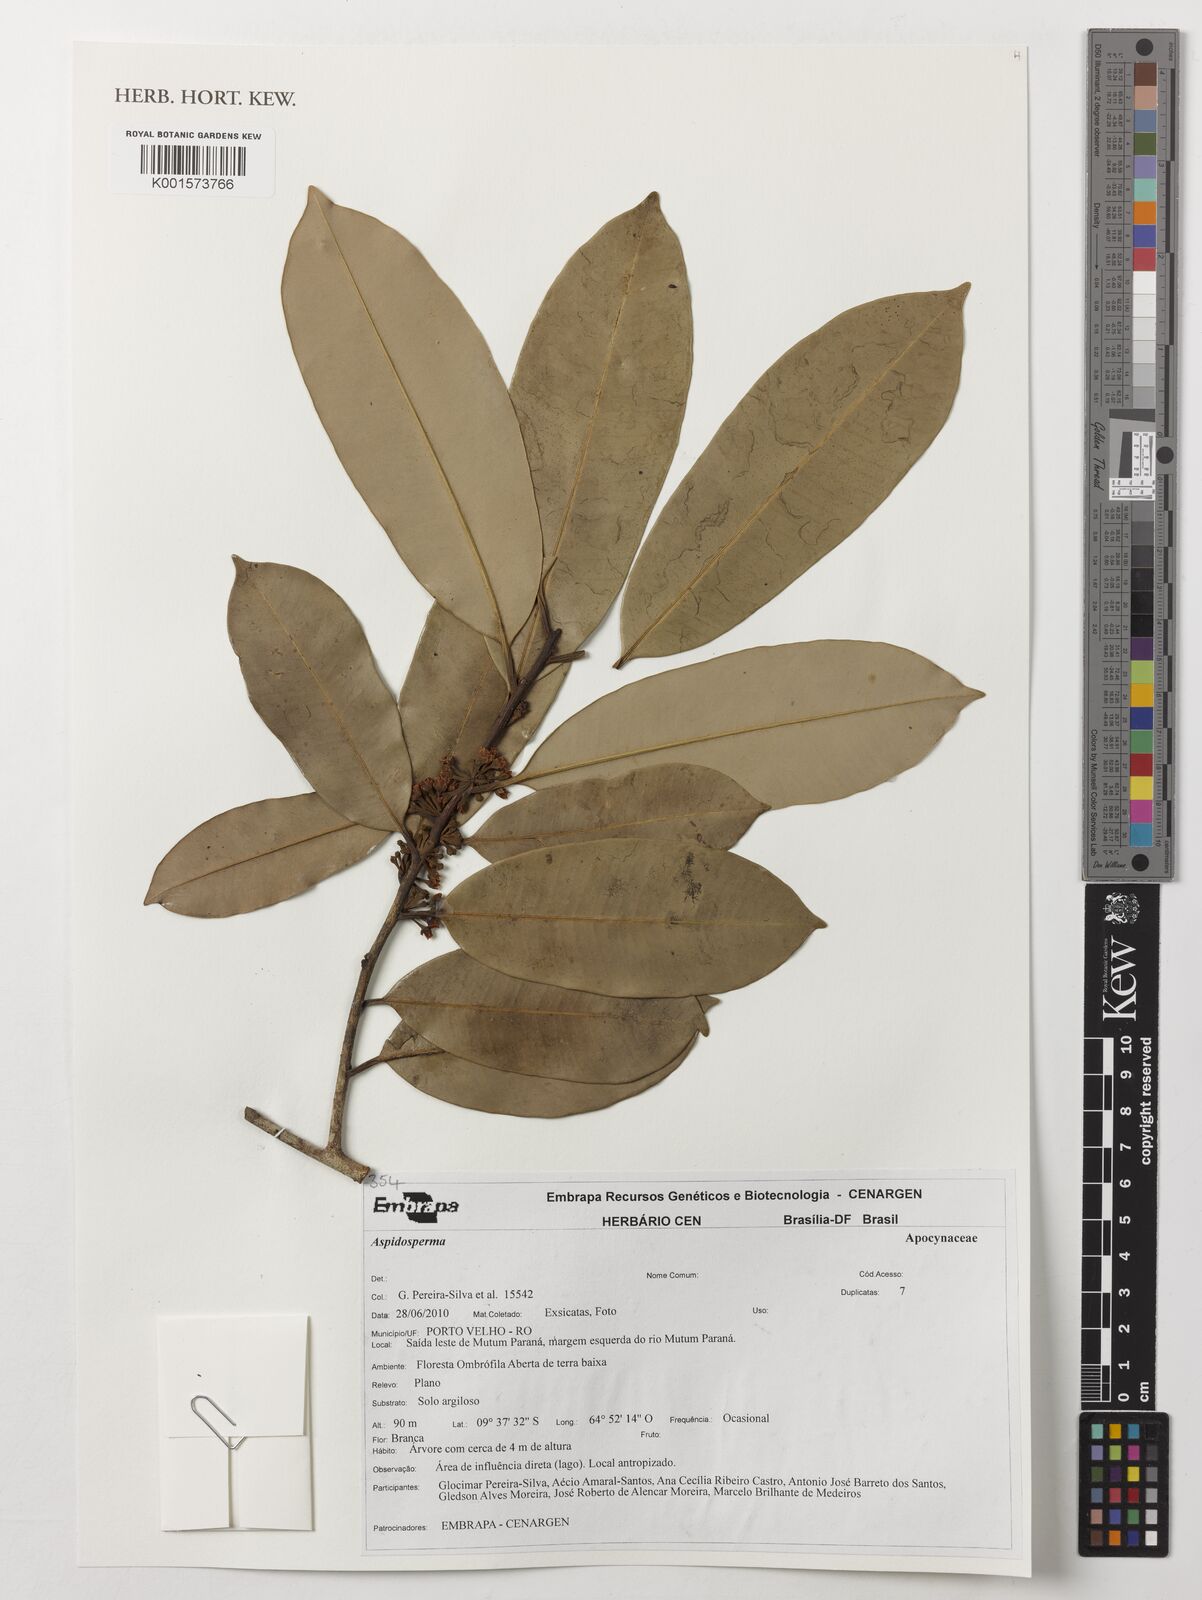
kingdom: Plantae
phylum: Tracheophyta
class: Magnoliopsida
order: Gentianales
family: Apocynaceae
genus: Aspidosperma
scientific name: Aspidosperma
